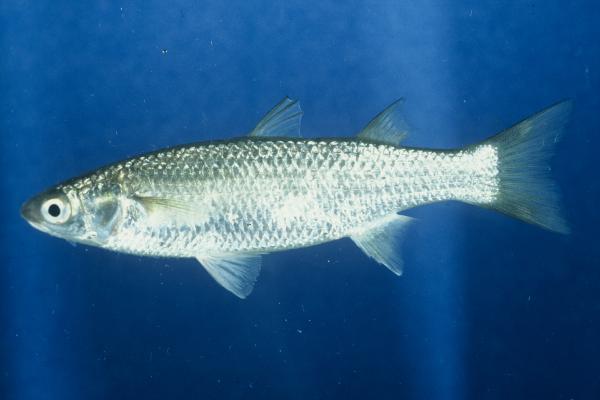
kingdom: Animalia
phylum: Chordata
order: Mugiliformes
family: Mugilidae
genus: Chelon
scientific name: Chelon dumerili
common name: Groovy mullet
